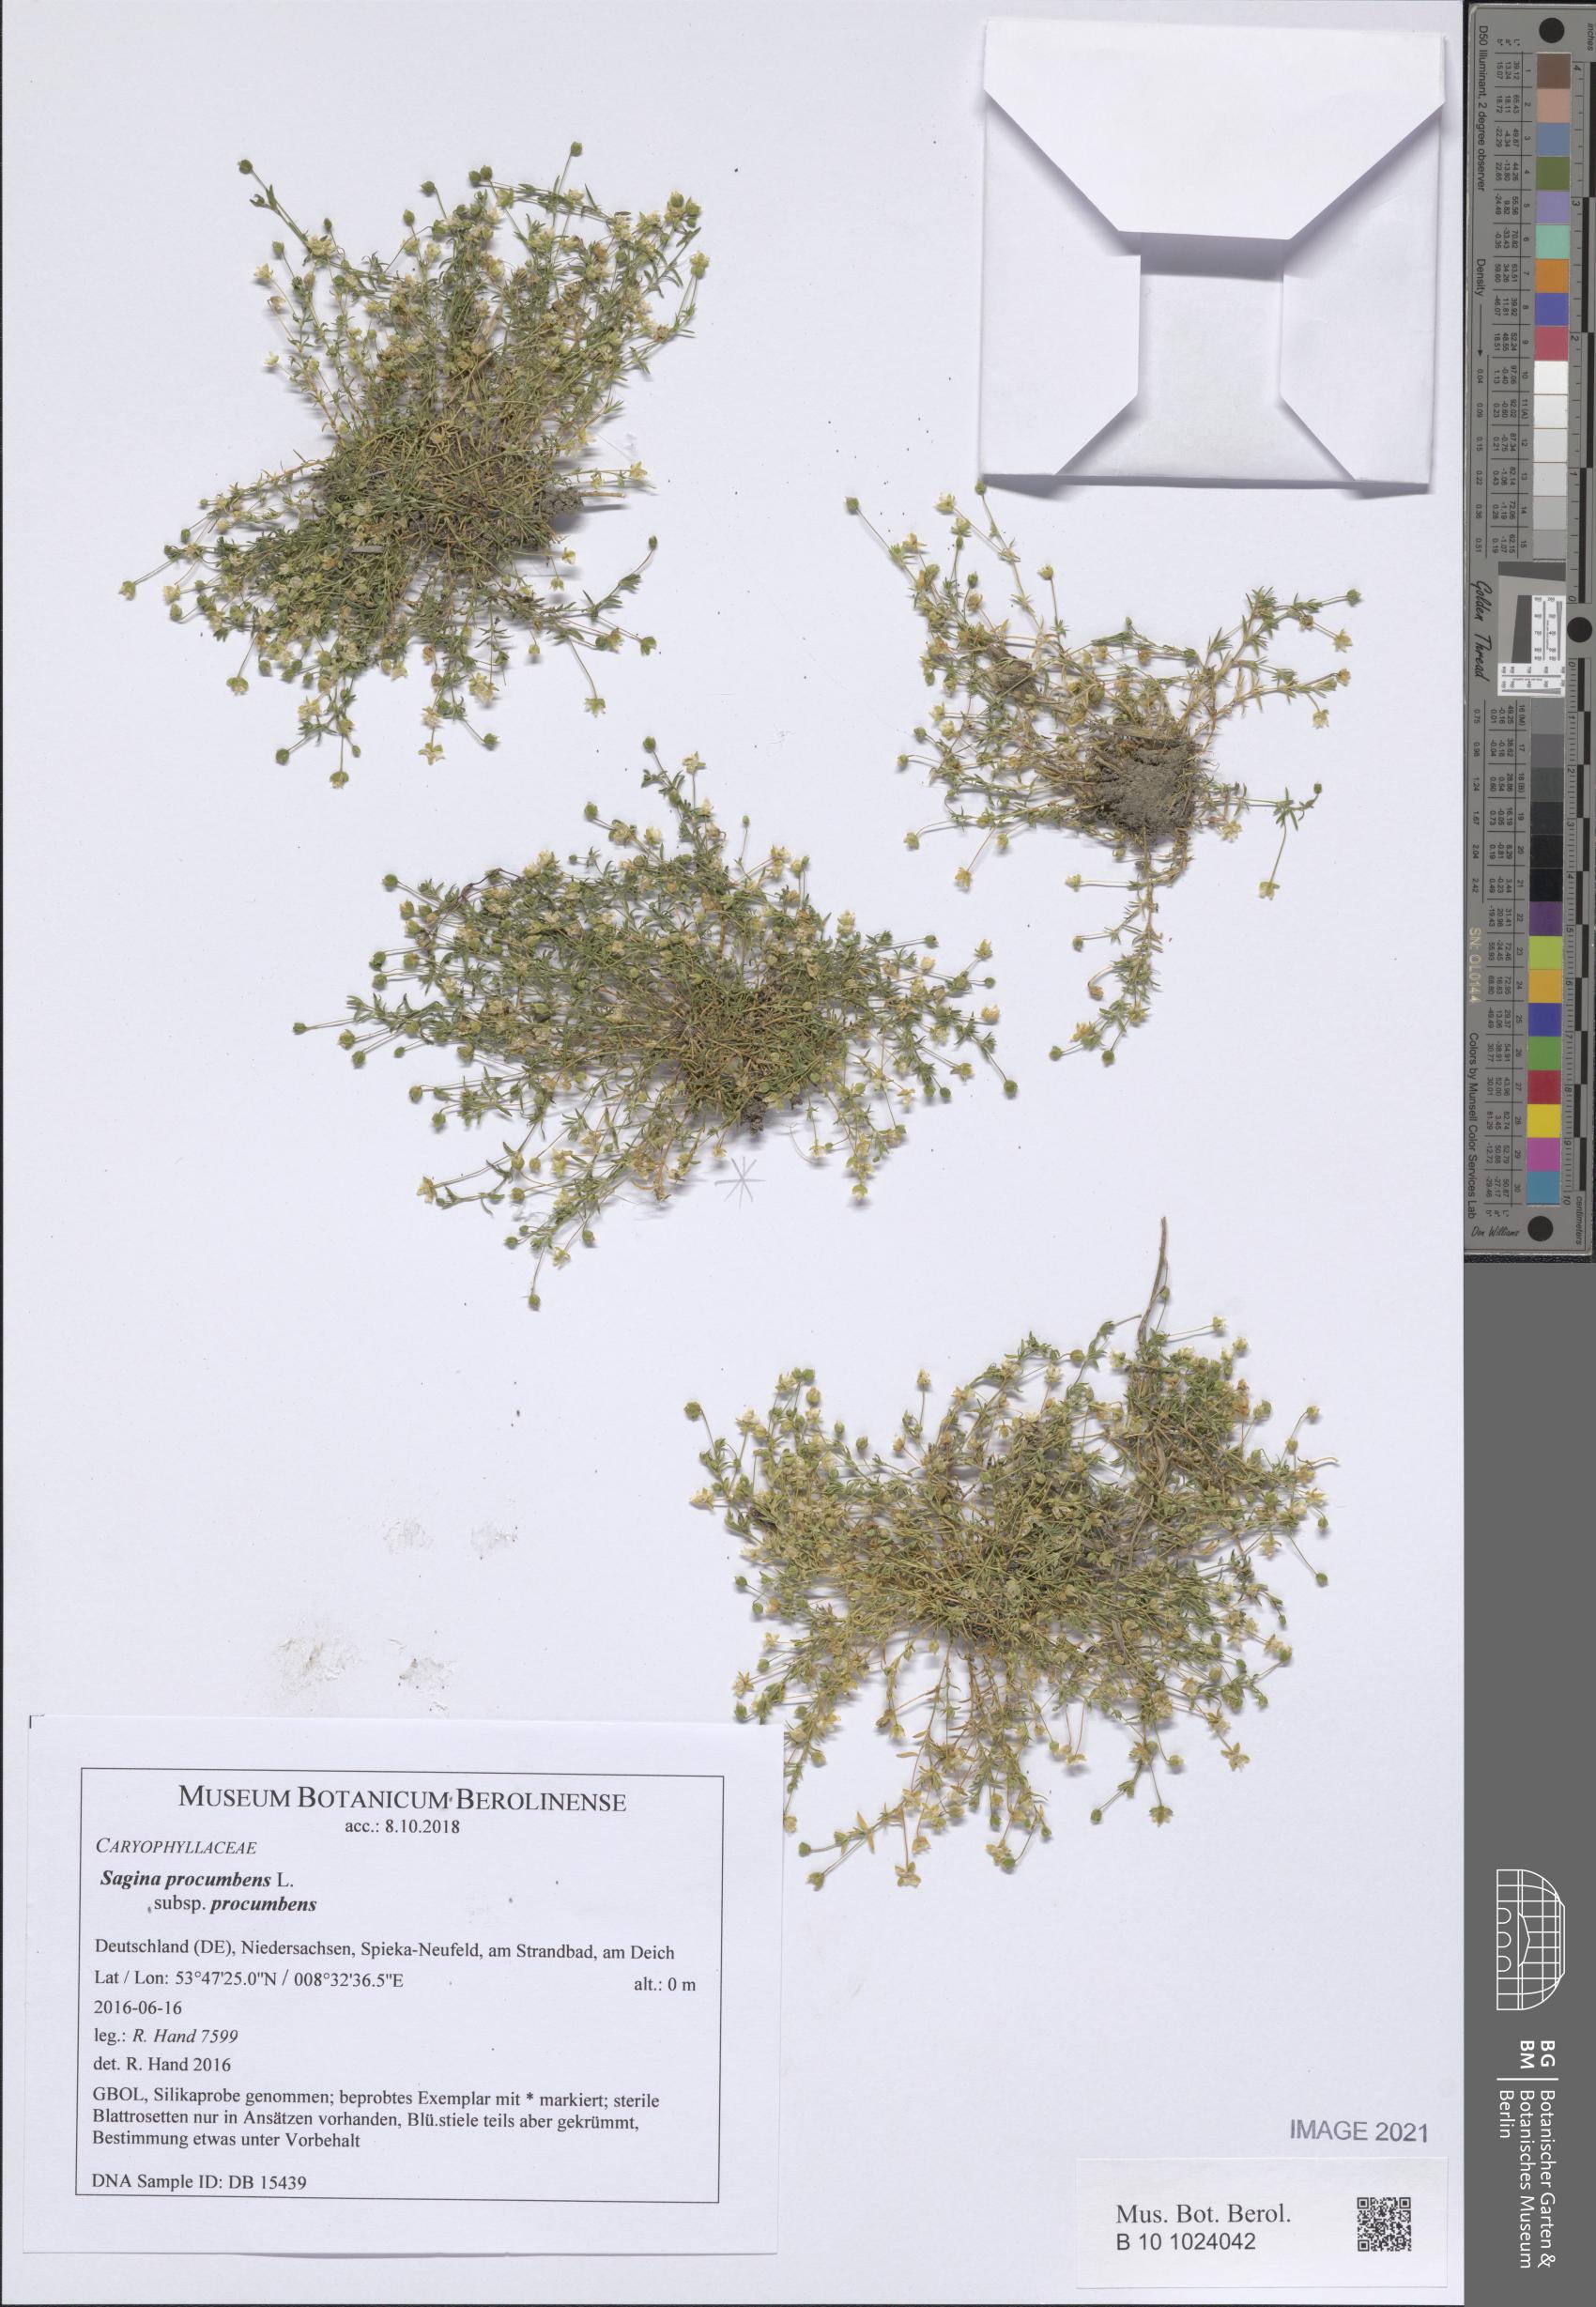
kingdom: Plantae
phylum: Tracheophyta
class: Magnoliopsida
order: Caryophyllales
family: Caryophyllaceae
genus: Sagina
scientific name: Sagina procumbens
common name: Procumbent pearlwort
